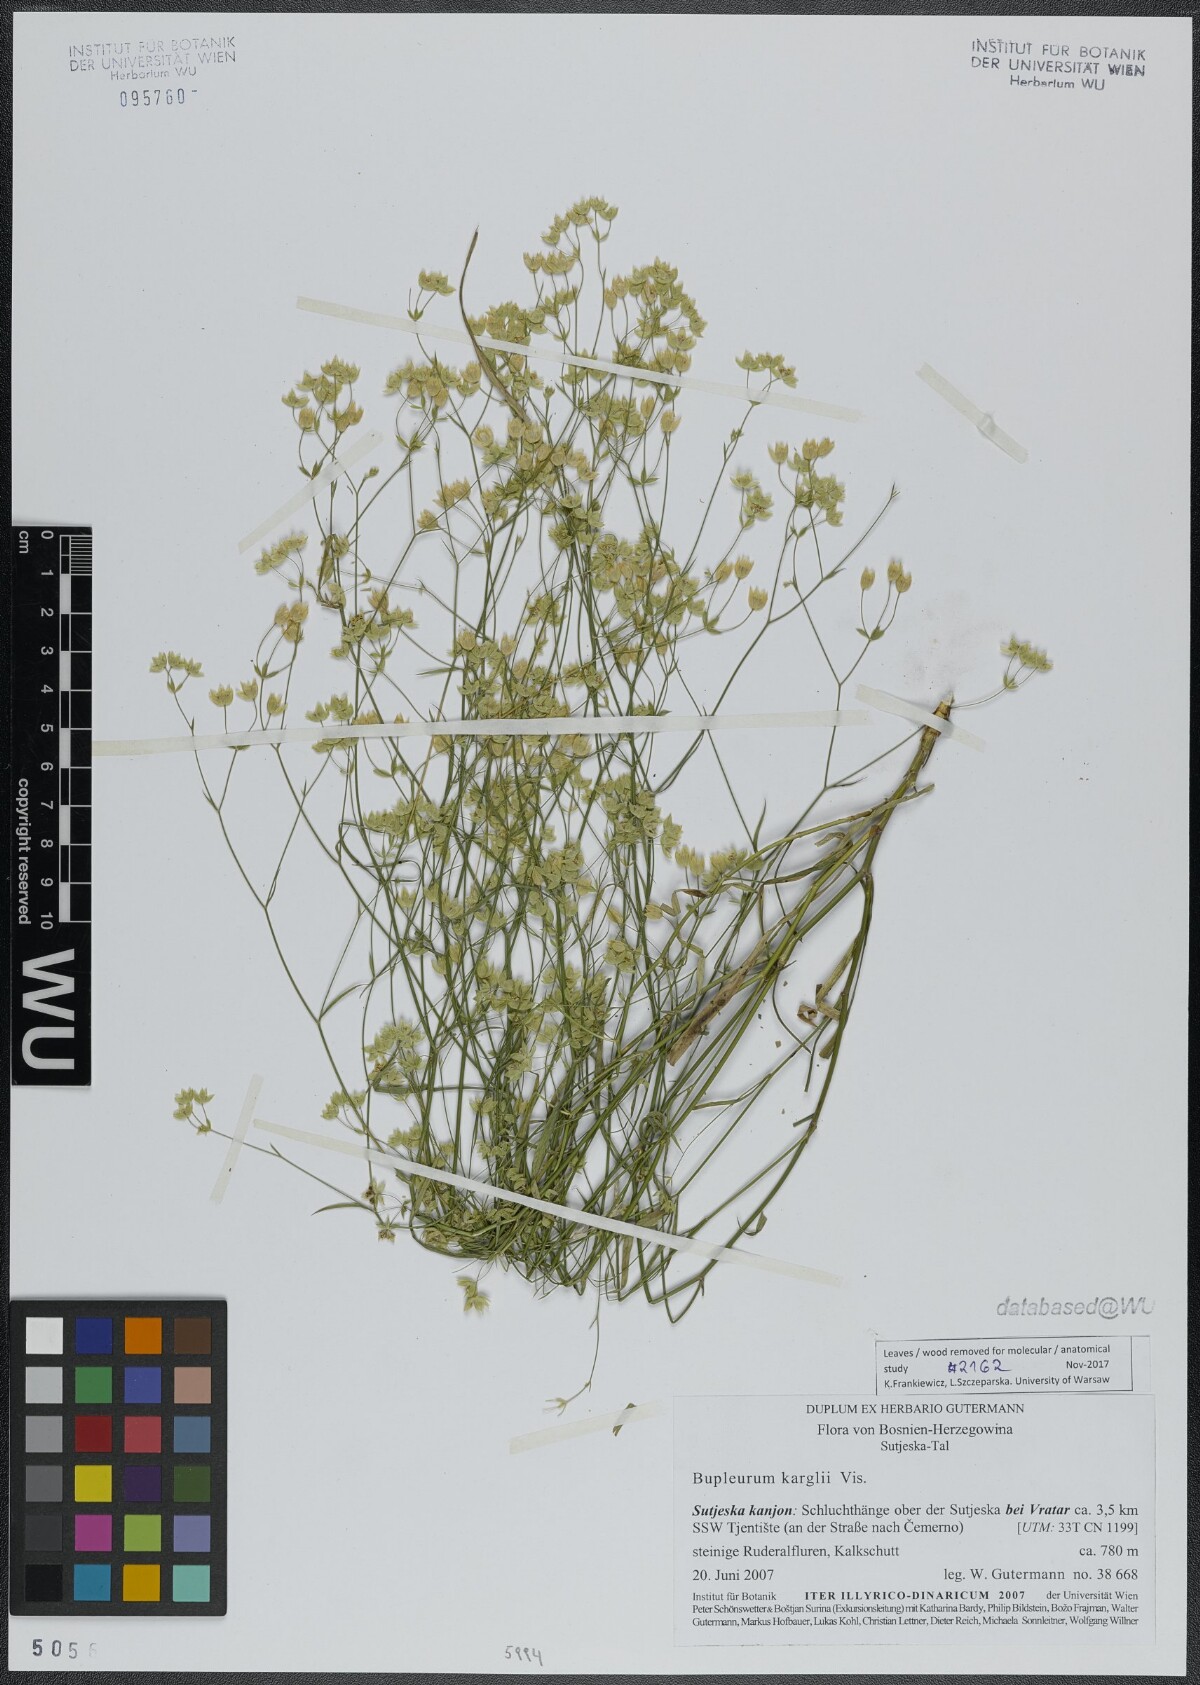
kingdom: Plantae
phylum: Tracheophyta
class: Magnoliopsida
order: Apiales
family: Apiaceae
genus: Bupleurum
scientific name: Bupleurum karglii
